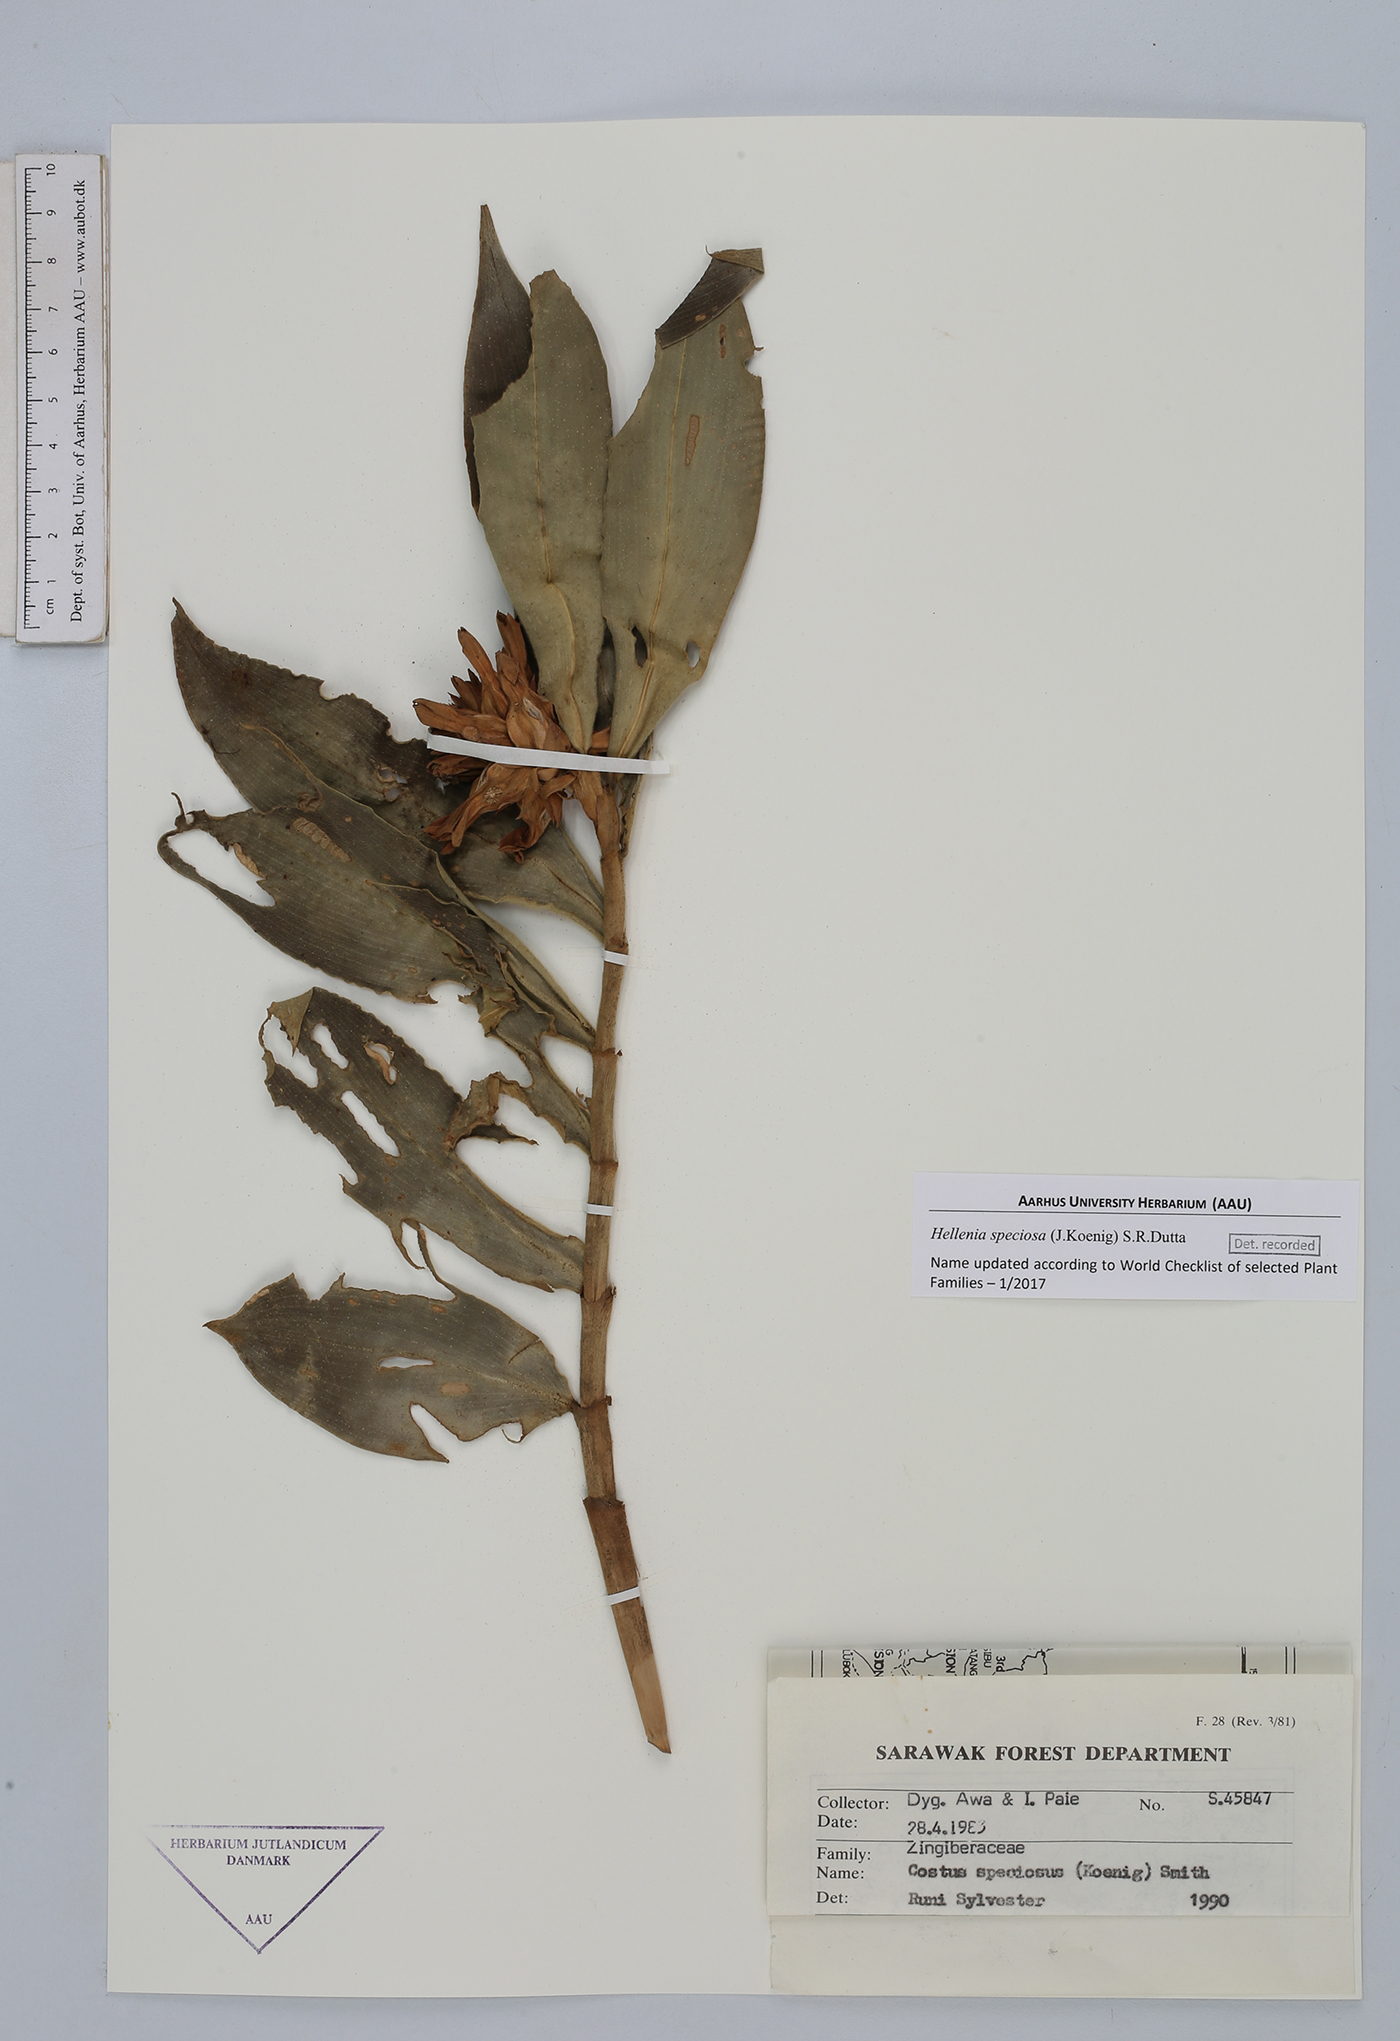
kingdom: Plantae
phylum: Tracheophyta
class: Liliopsida
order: Zingiberales
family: Costaceae
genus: Hellenia
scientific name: Hellenia speciosa
